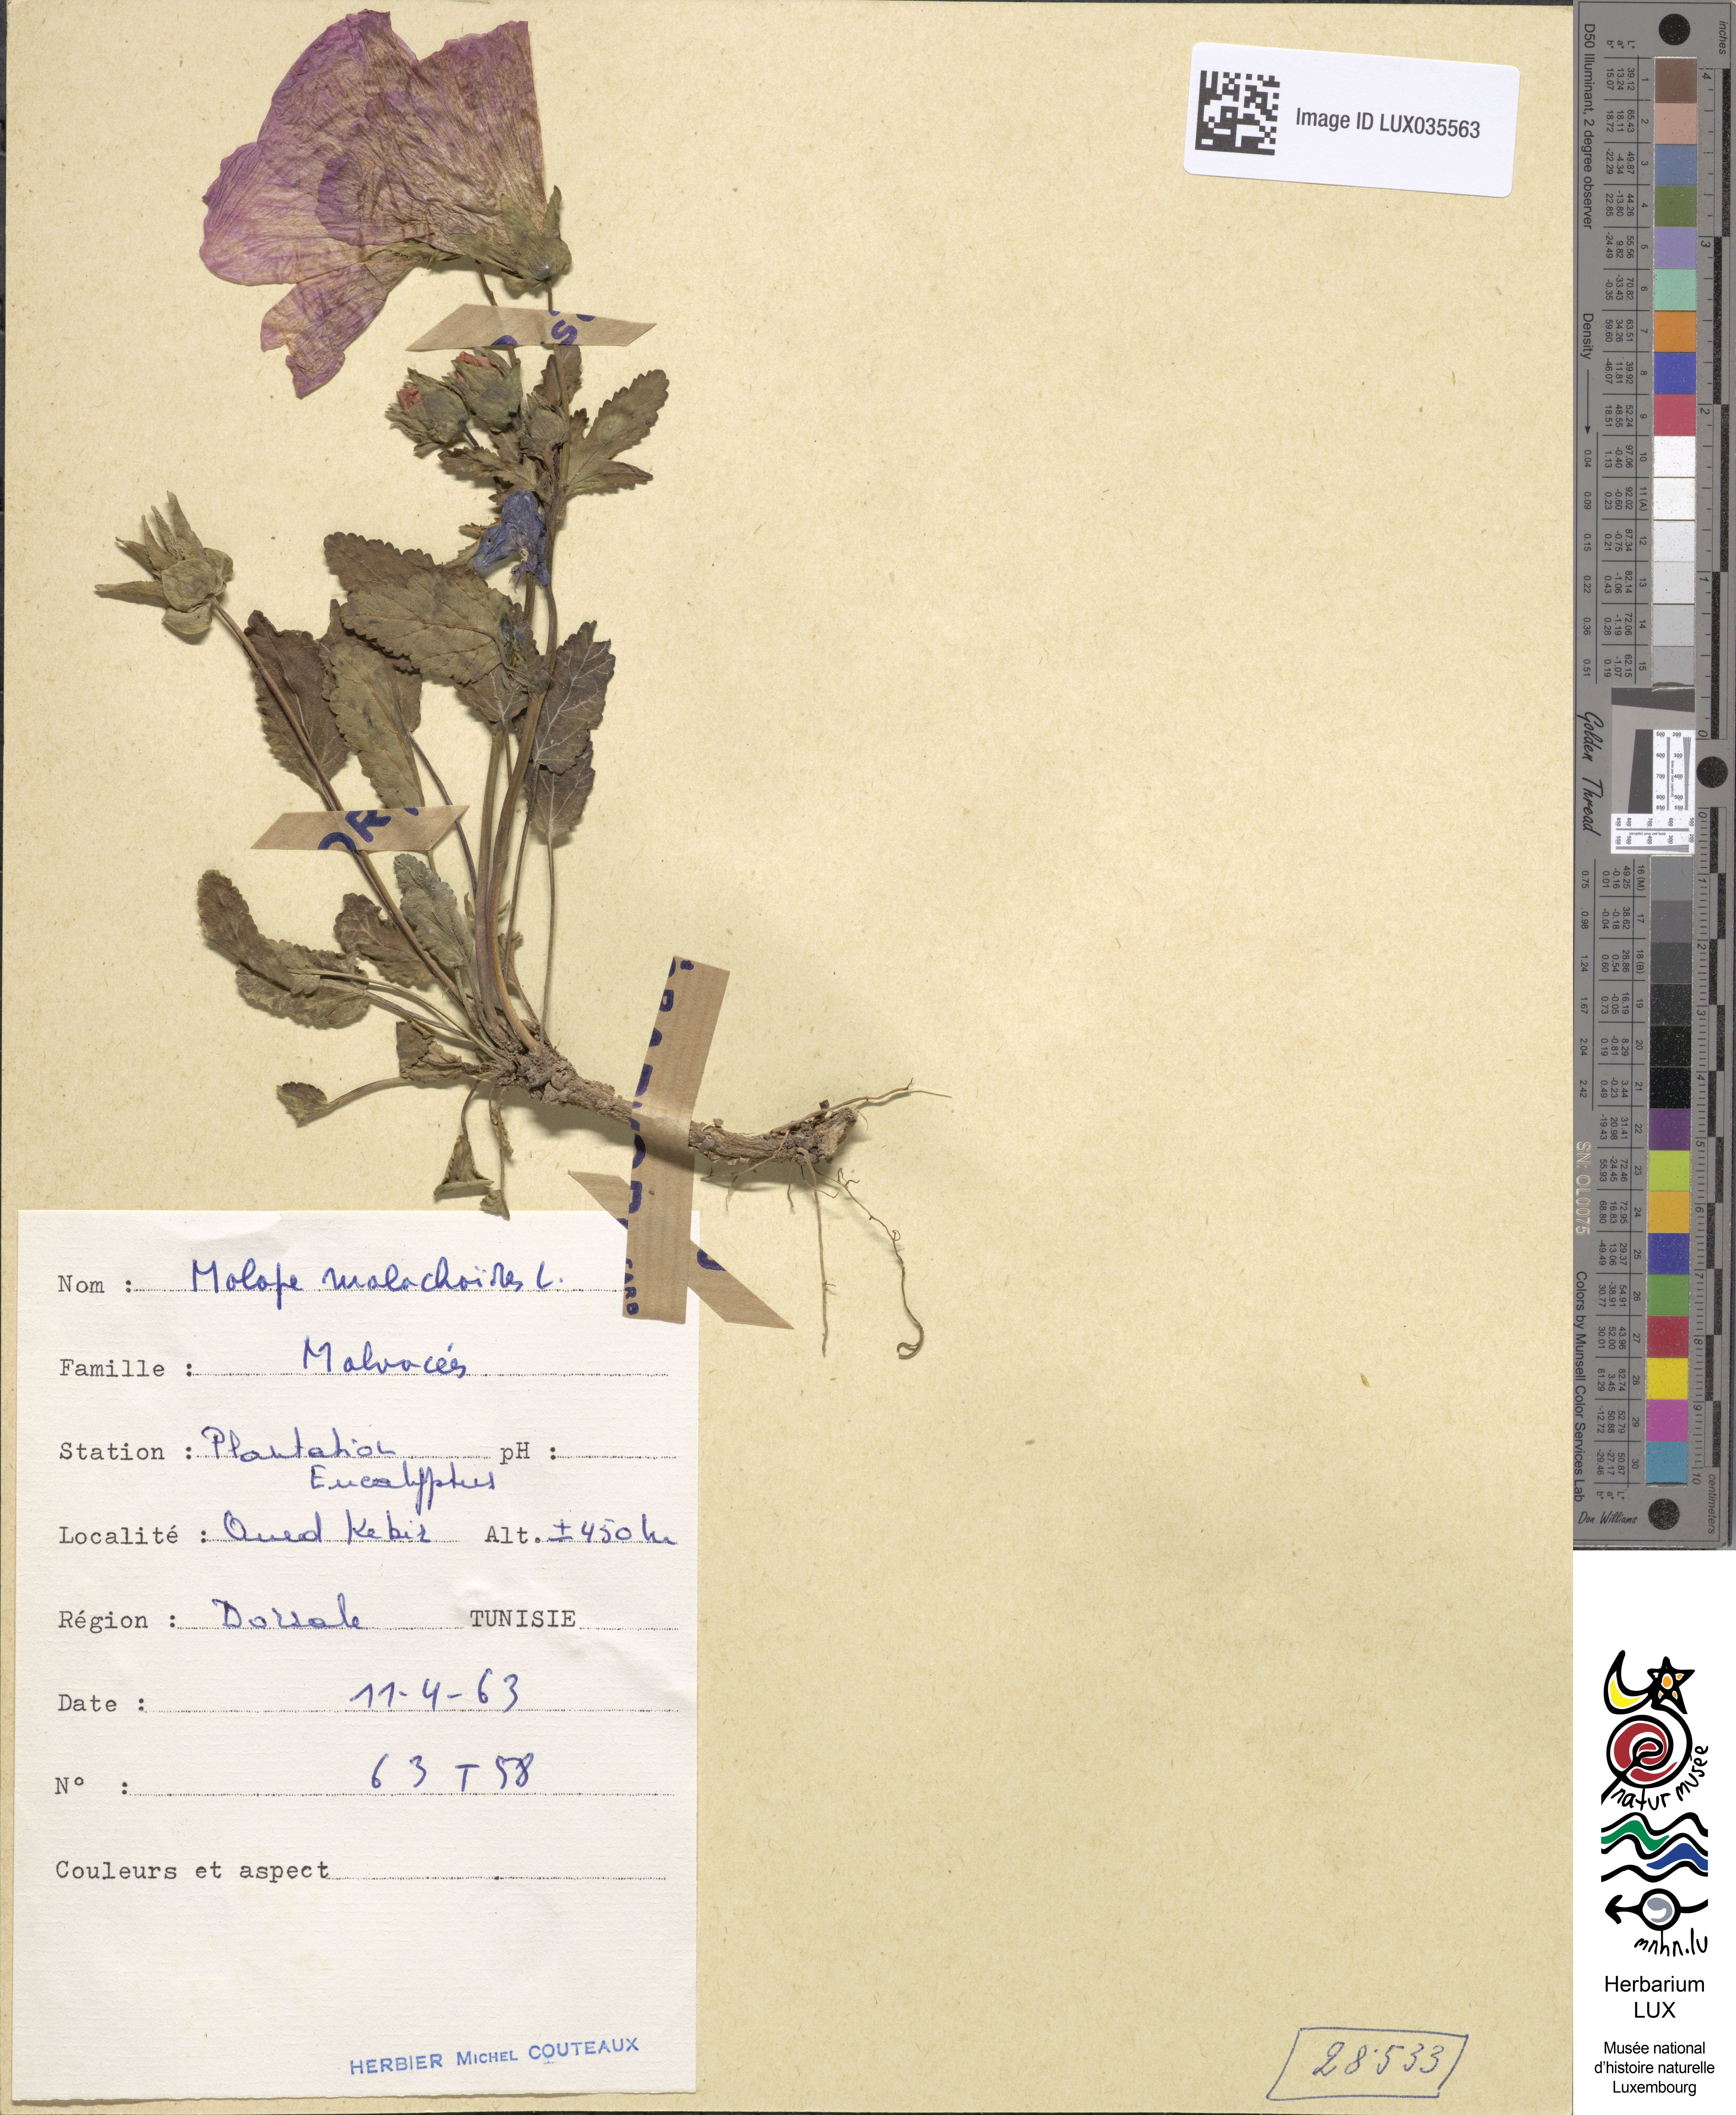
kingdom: Plantae
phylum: Tracheophyta
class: Magnoliopsida
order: Malvales
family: Malvaceae
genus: Malope
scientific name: Malope malacoides
